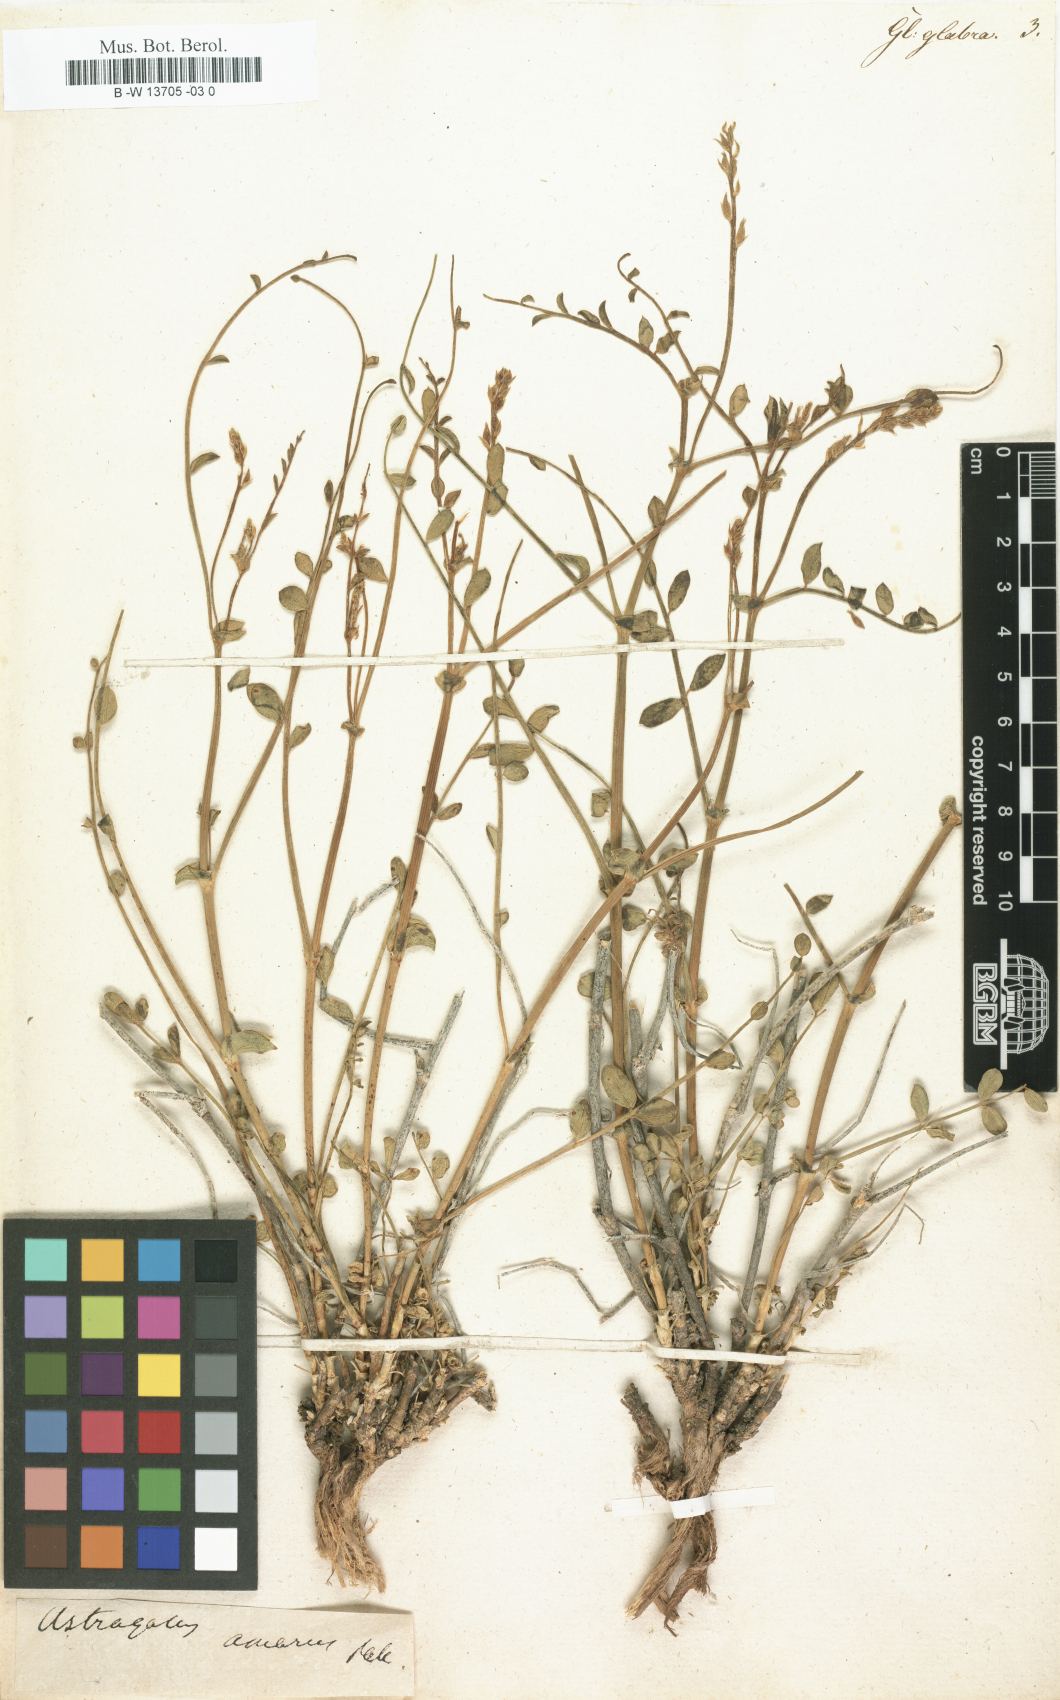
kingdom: Plantae
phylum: Tracheophyta
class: Magnoliopsida
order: Fabales
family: Fabaceae
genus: Glycyrrhiza
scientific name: Glycyrrhiza glabra
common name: Liquorice
